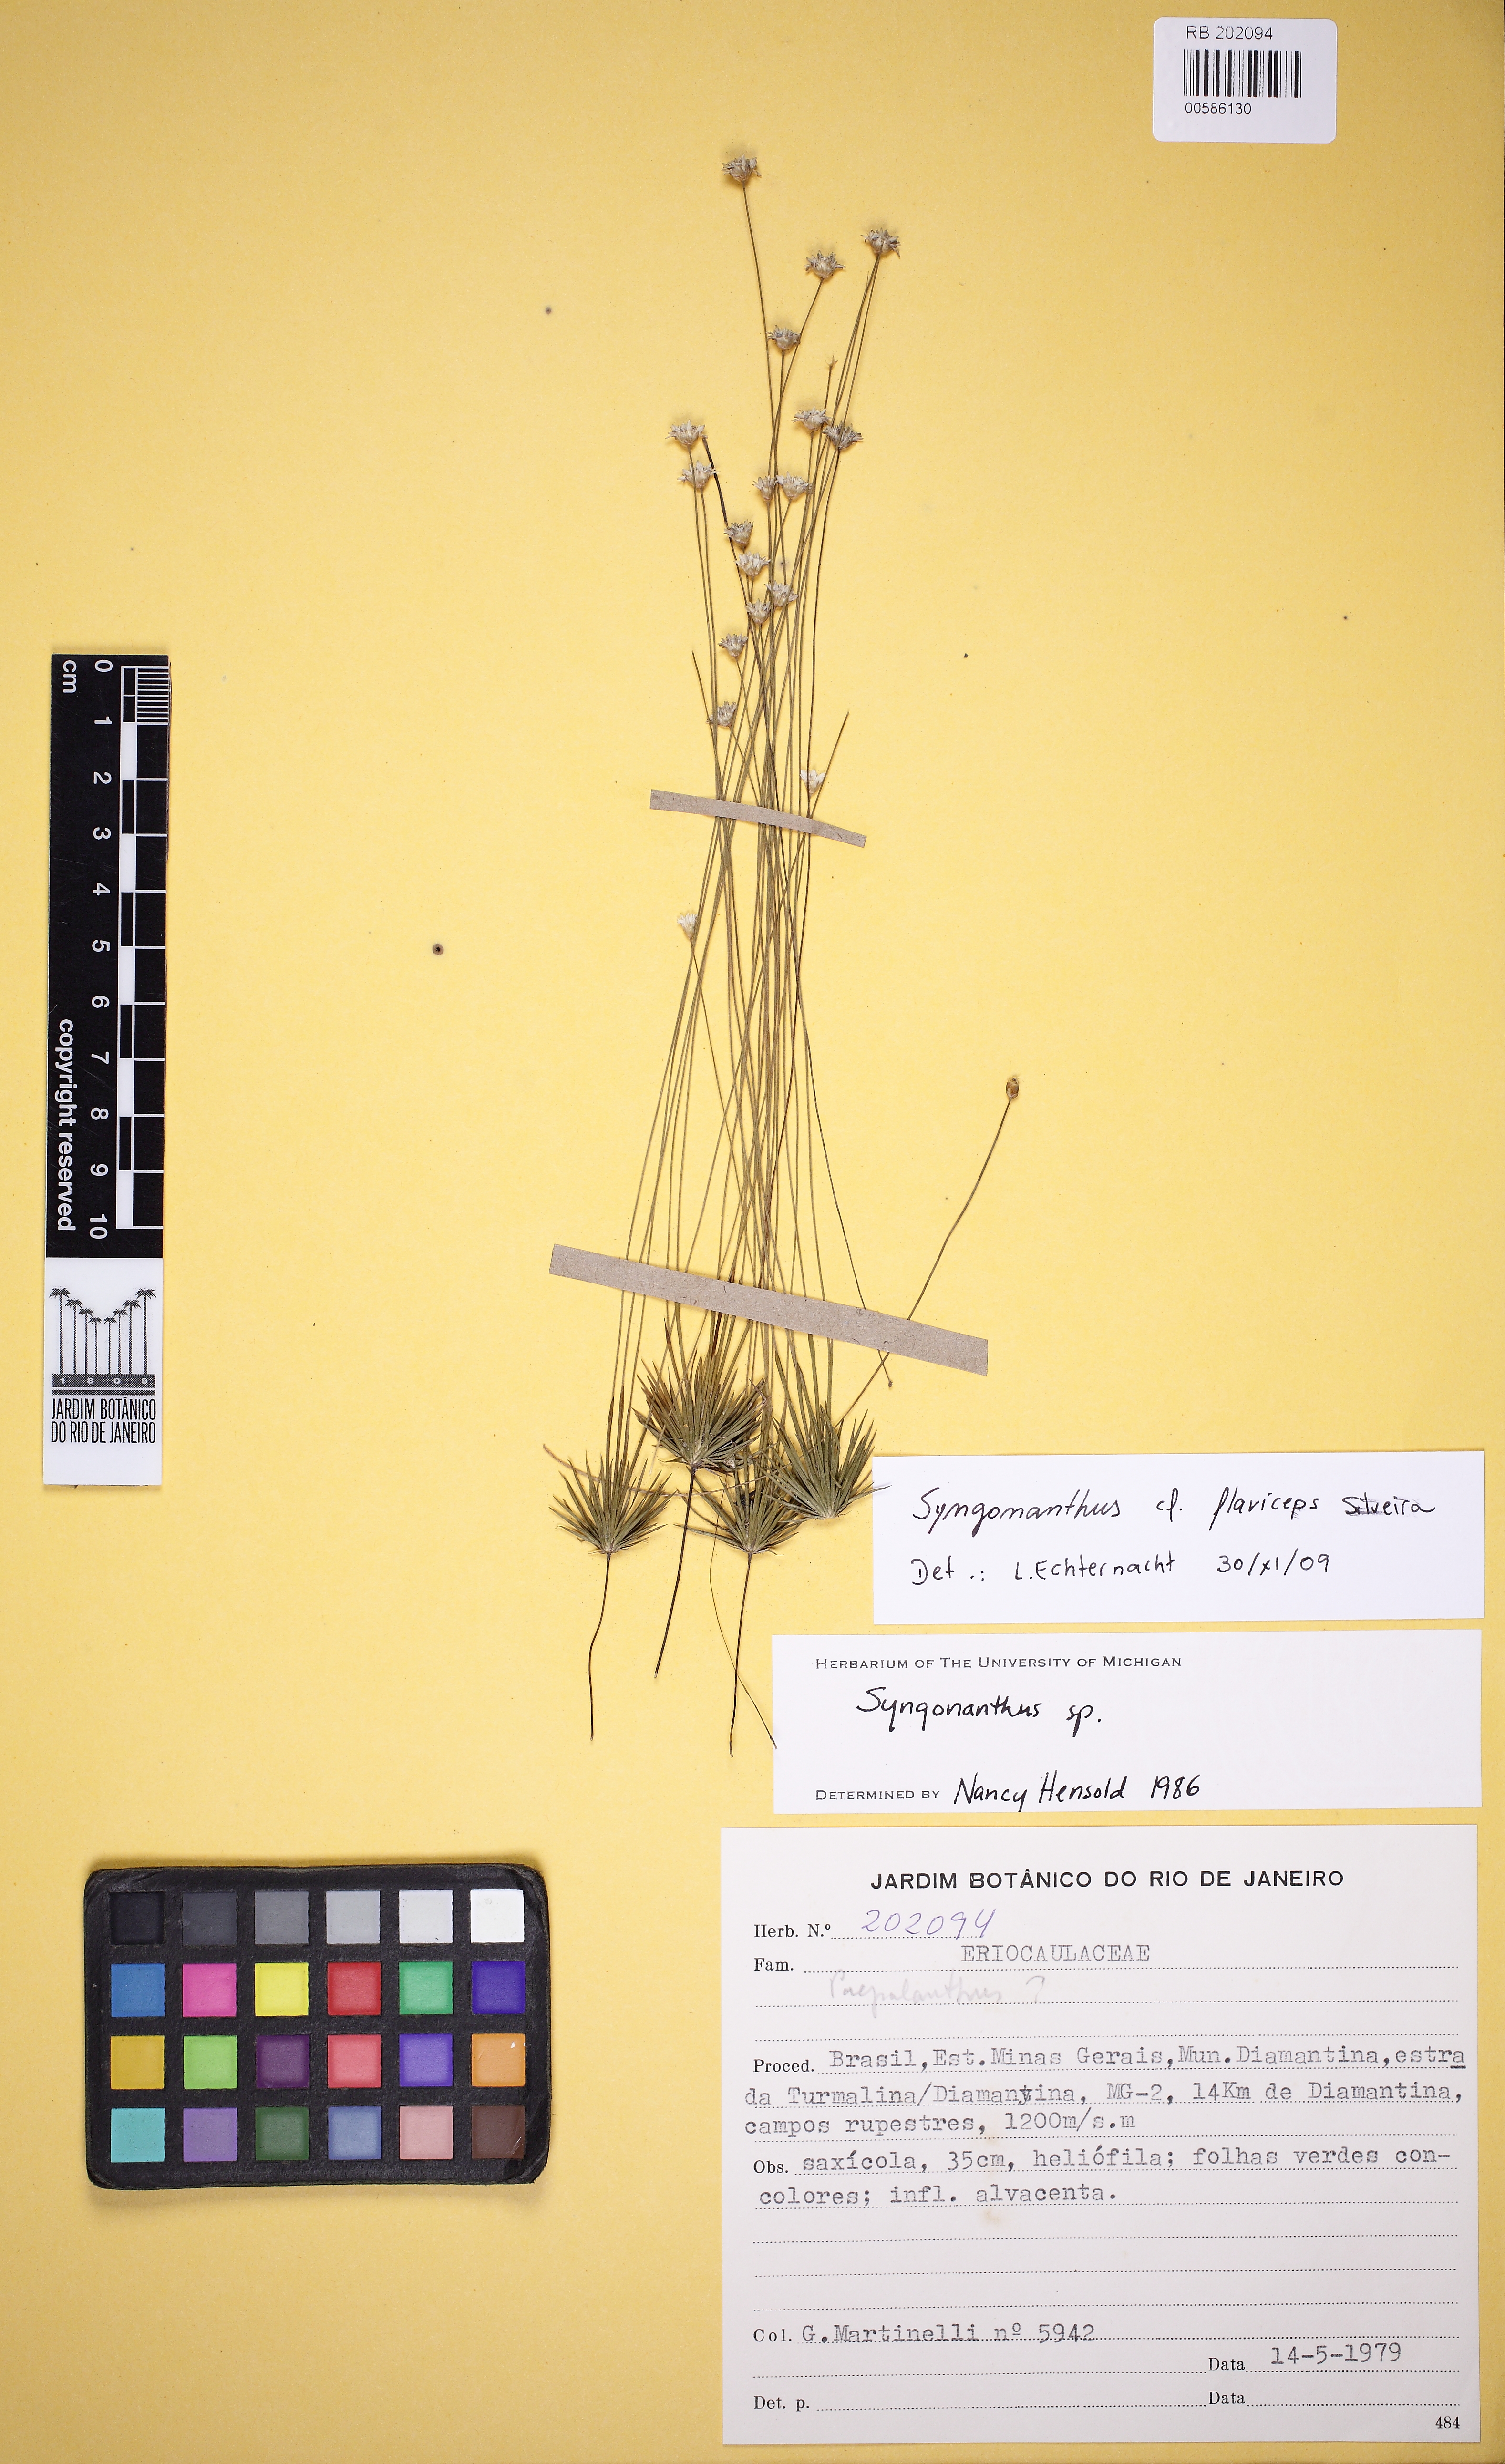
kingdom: Plantae
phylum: Tracheophyta
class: Liliopsida
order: Poales
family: Eriocaulaceae
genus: Syngonanthus
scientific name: Syngonanthus flaviceps
